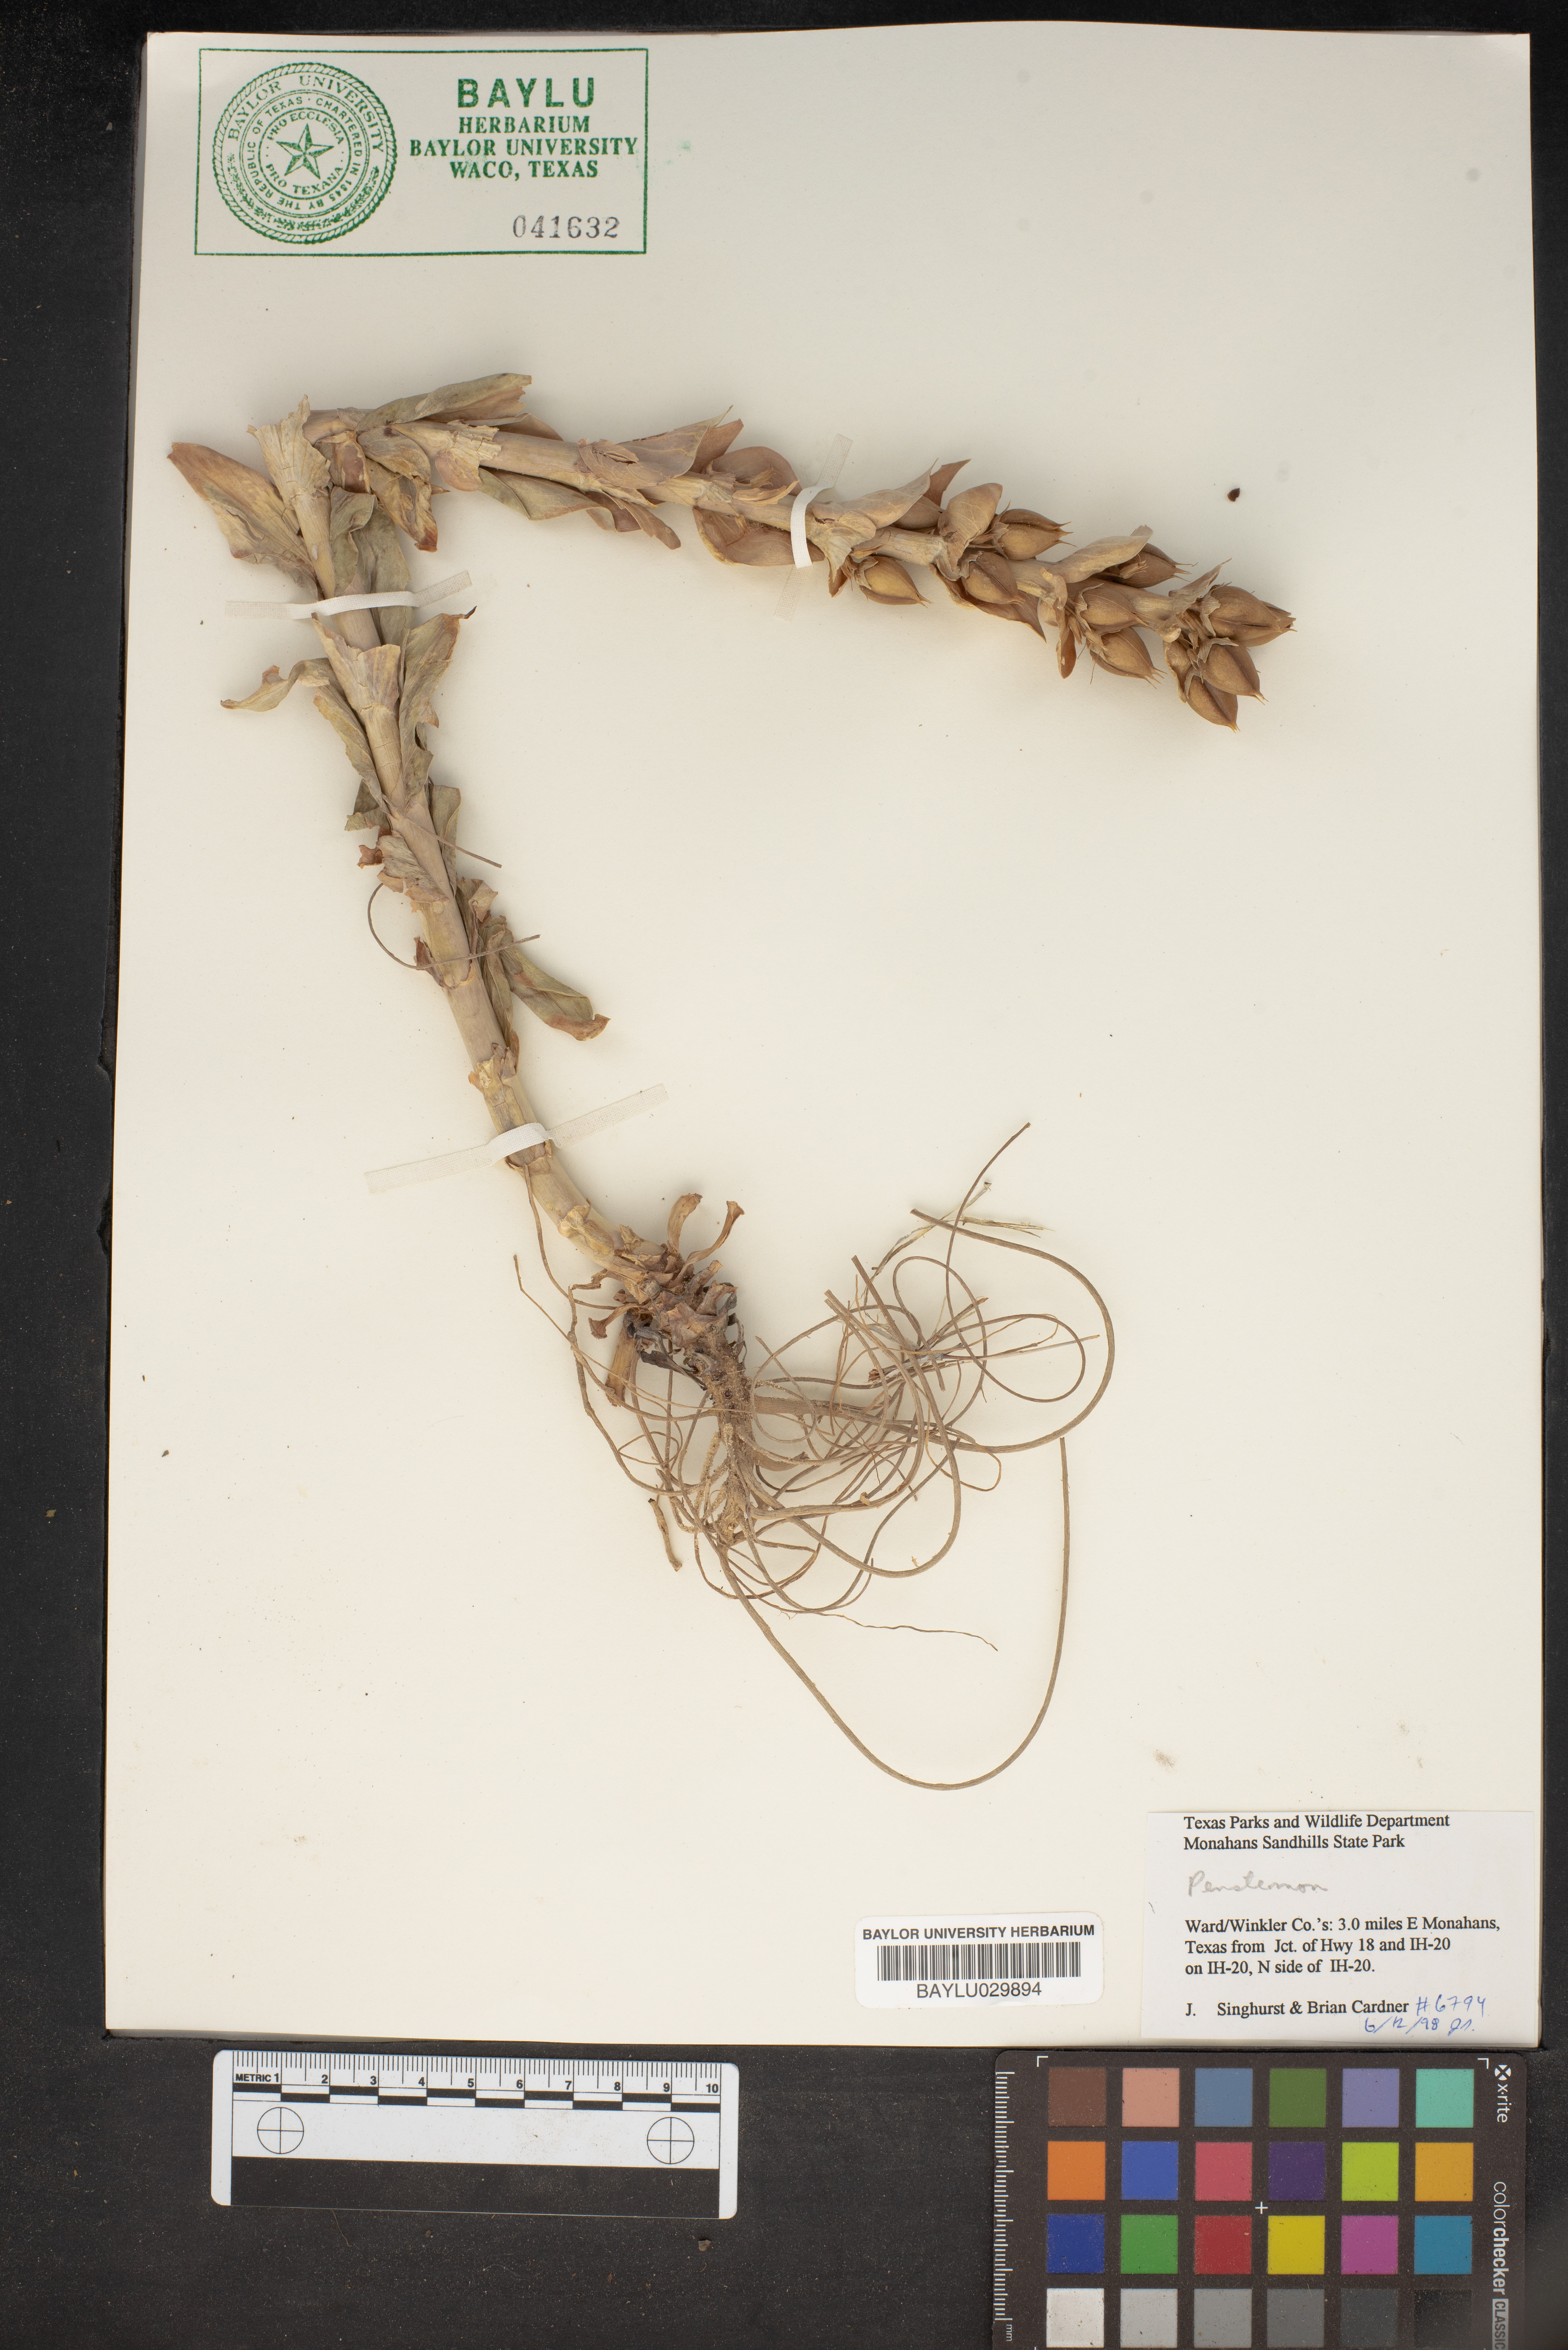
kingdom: Plantae
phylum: Tracheophyta
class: Magnoliopsida
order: Lamiales
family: Plantaginaceae
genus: Penstemon
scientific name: Penstemon
